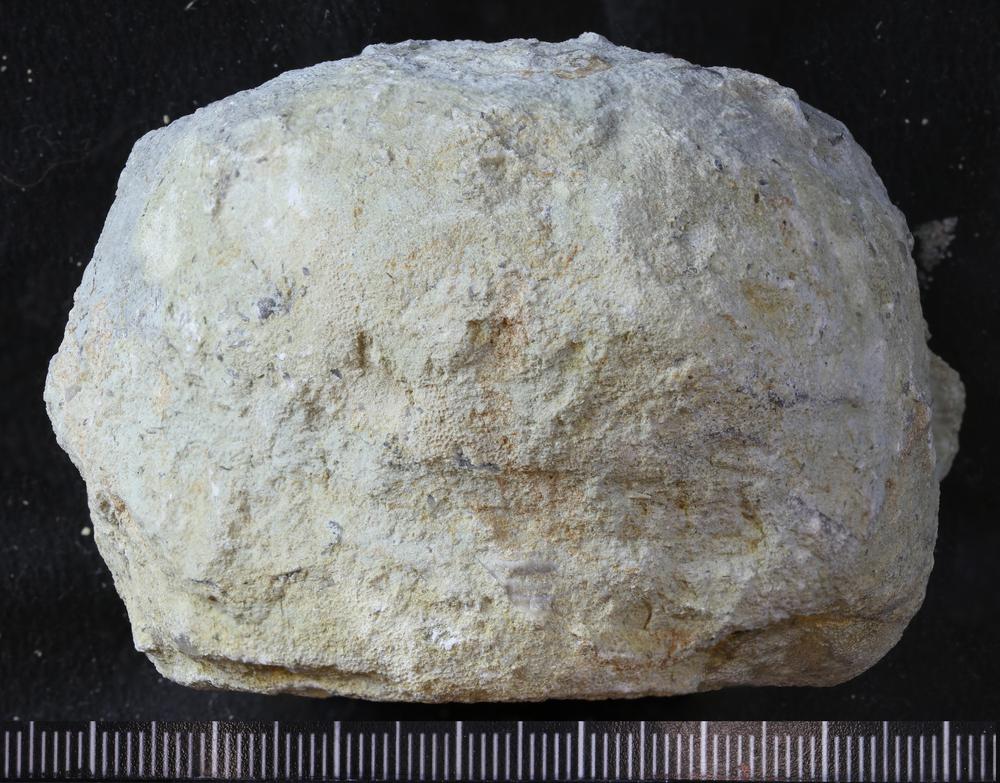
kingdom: Animalia
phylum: Bryozoa
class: Stenolaemata
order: Trepostomatida
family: Diplotrypidae
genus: Diplotrypa
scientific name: Diplotrypa petropolitana
